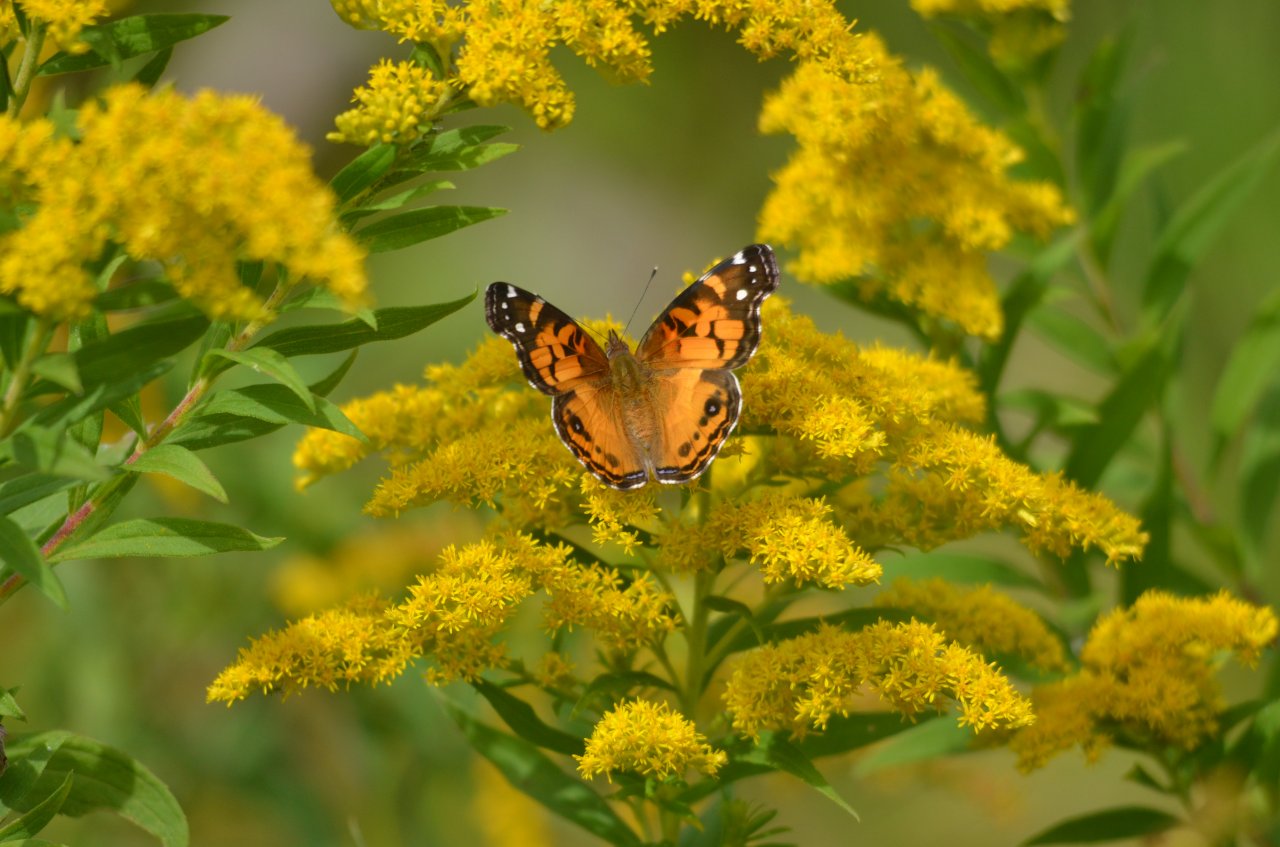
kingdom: Animalia
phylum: Arthropoda
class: Insecta
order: Lepidoptera
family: Nymphalidae
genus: Vanessa
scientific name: Vanessa cardui
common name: Painted Lady
